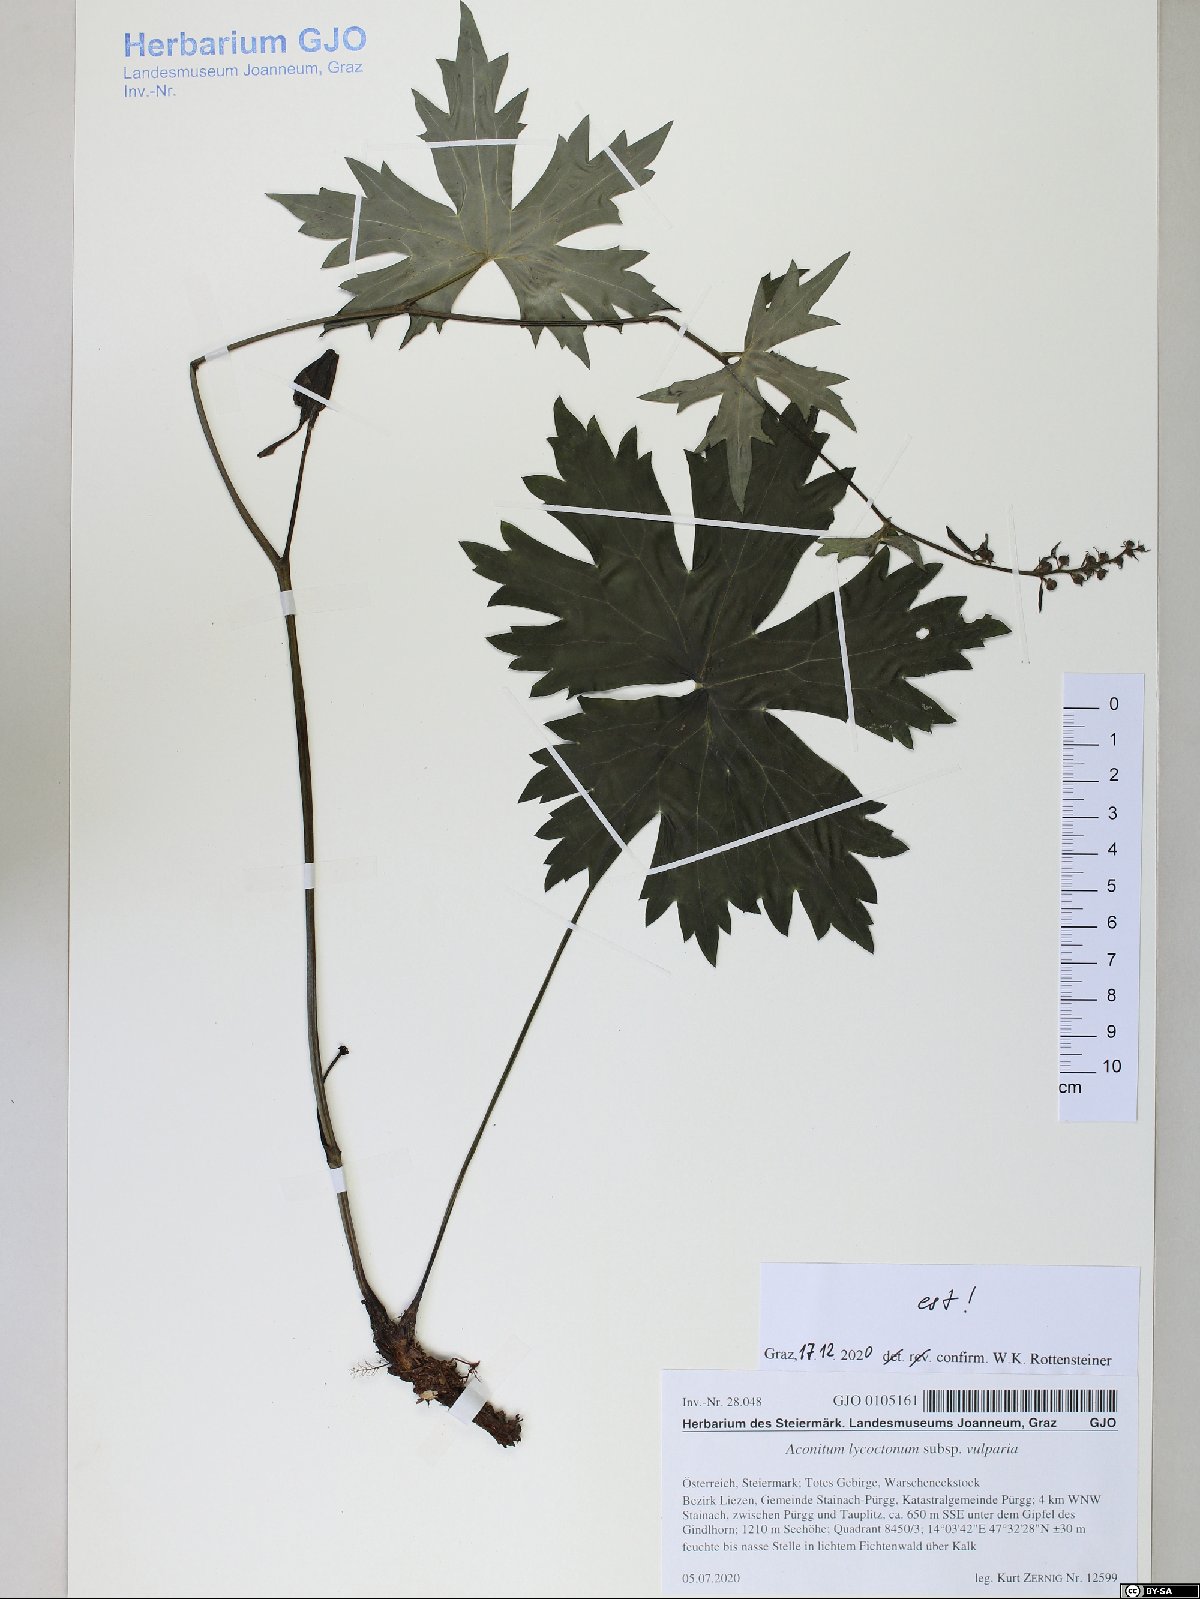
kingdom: Plantae
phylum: Tracheophyta
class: Magnoliopsida
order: Ranunculales
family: Ranunculaceae
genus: Aconitum
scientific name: Aconitum lycoctonum
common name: Wolf's-bane
